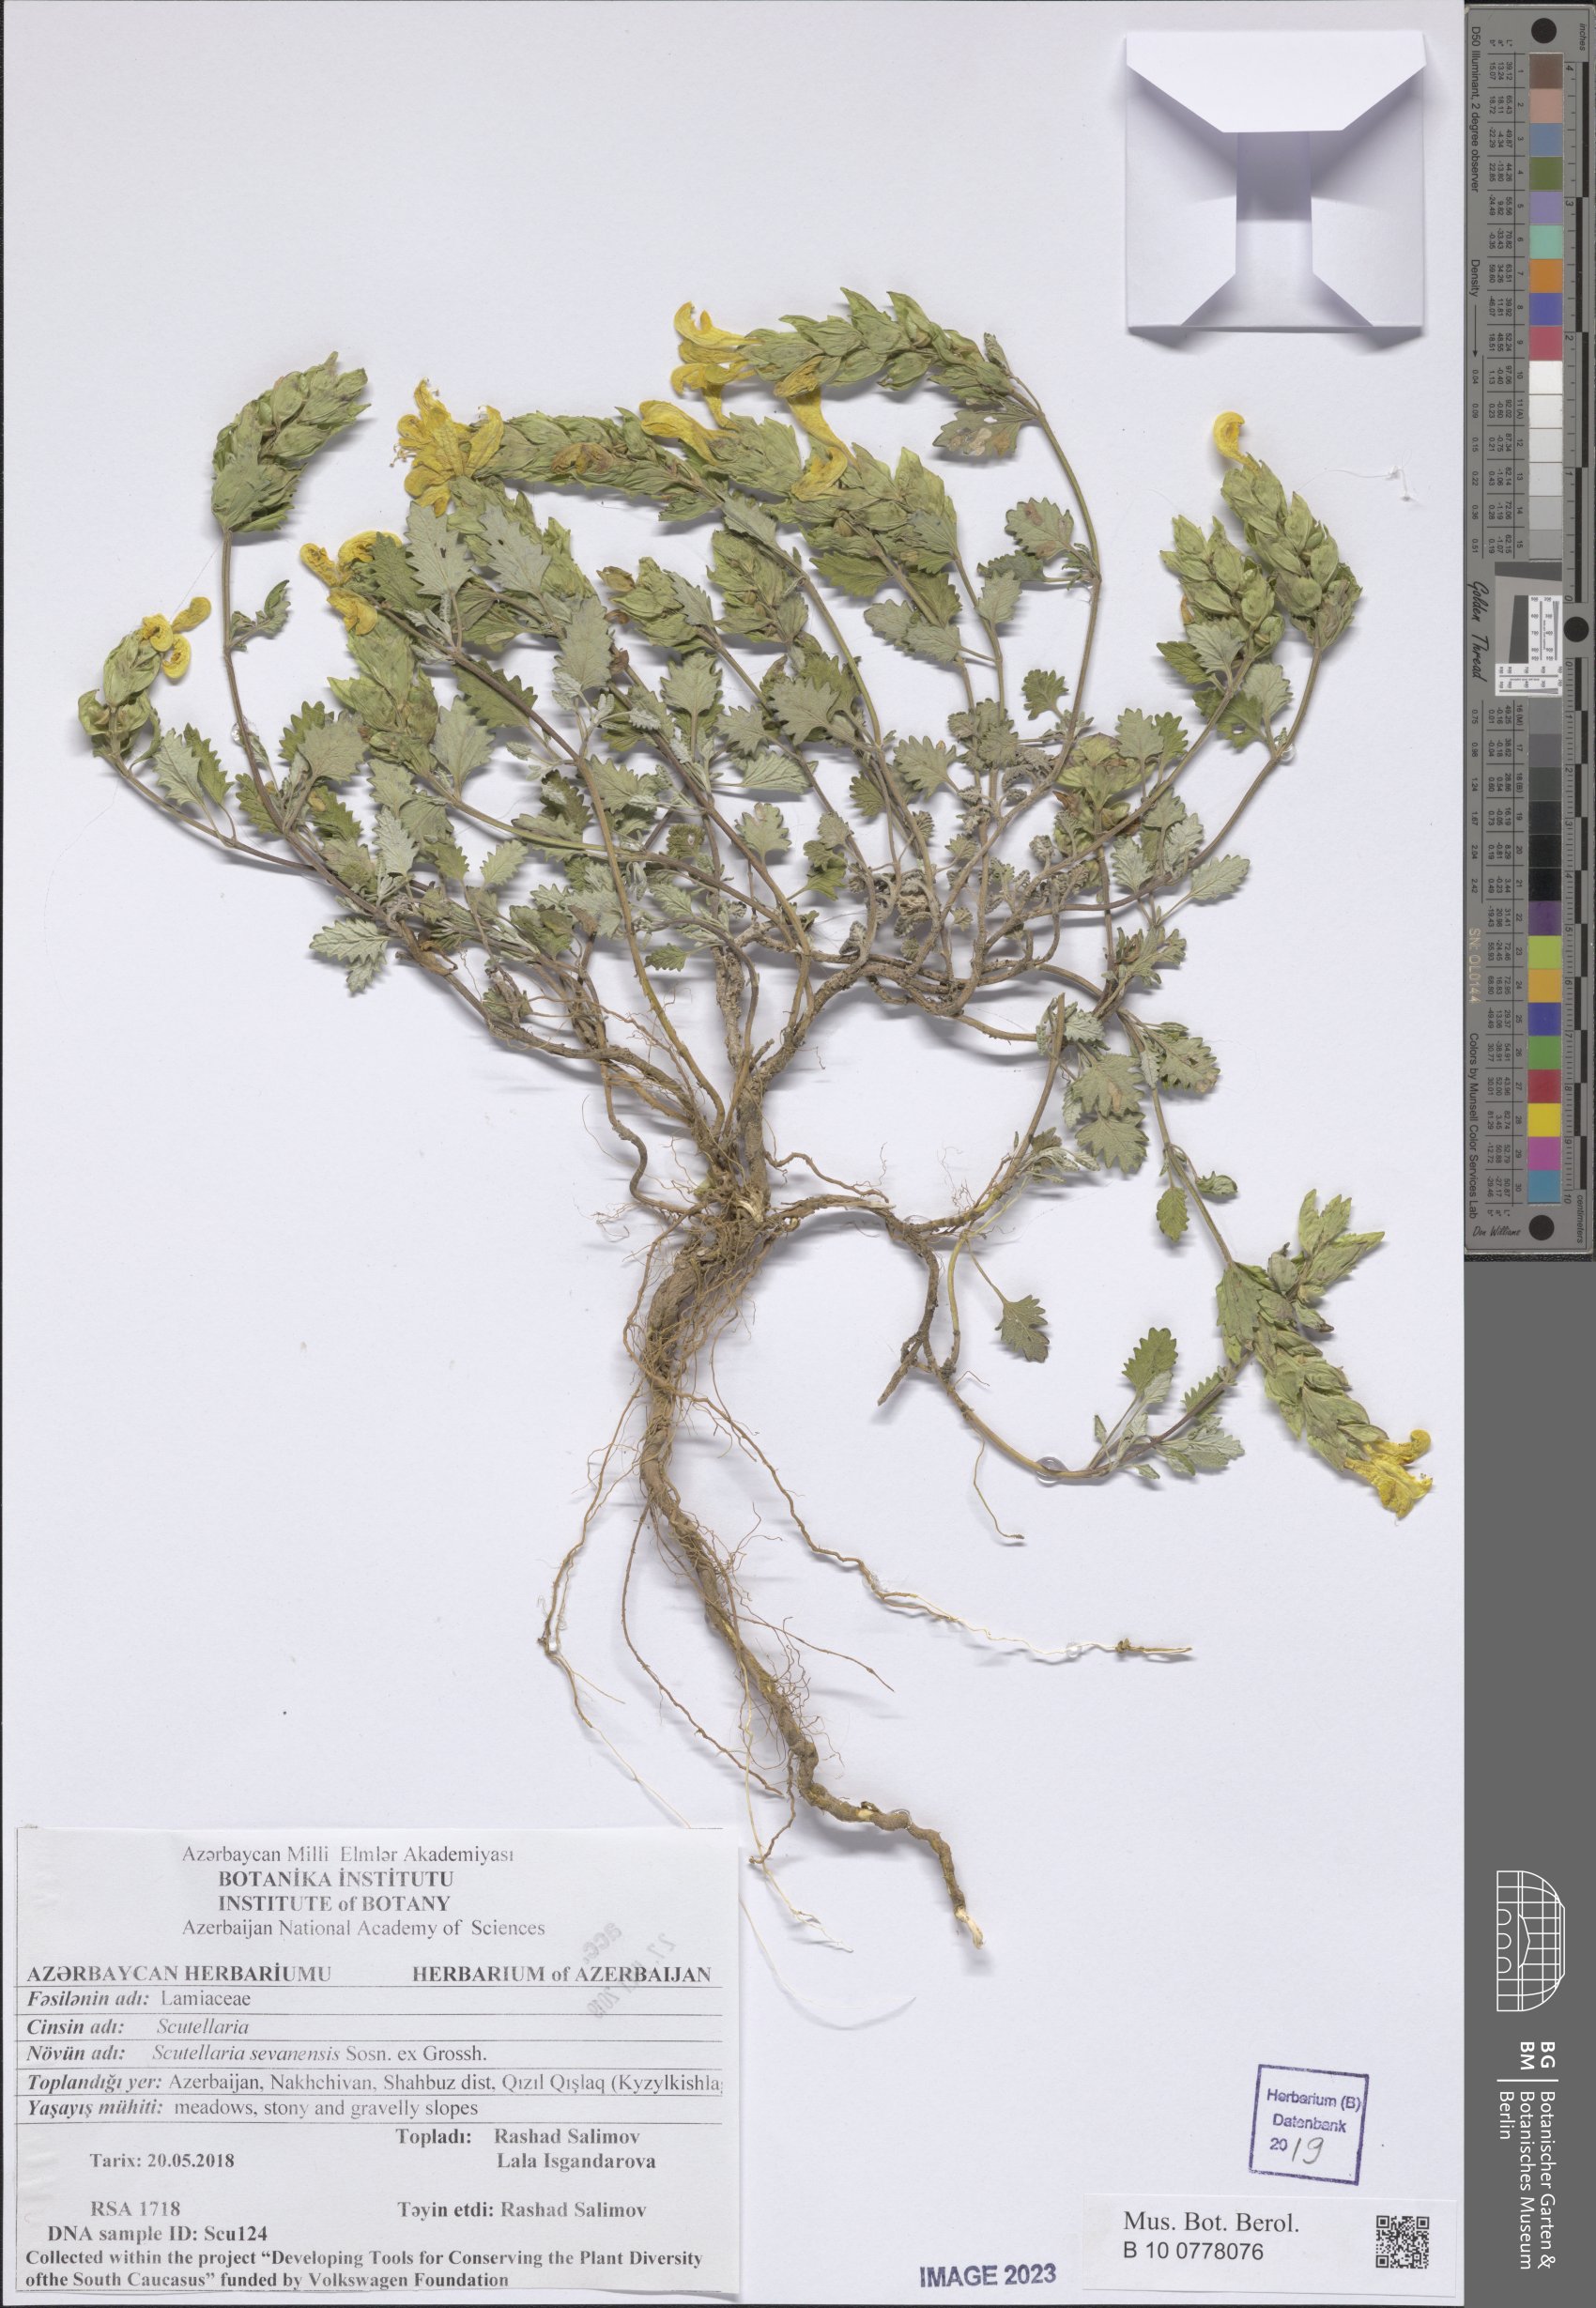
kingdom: Plantae
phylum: Tracheophyta
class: Magnoliopsida
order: Lamiales
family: Lamiaceae
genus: Scutellaria
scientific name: Scutellaria sevanensis
